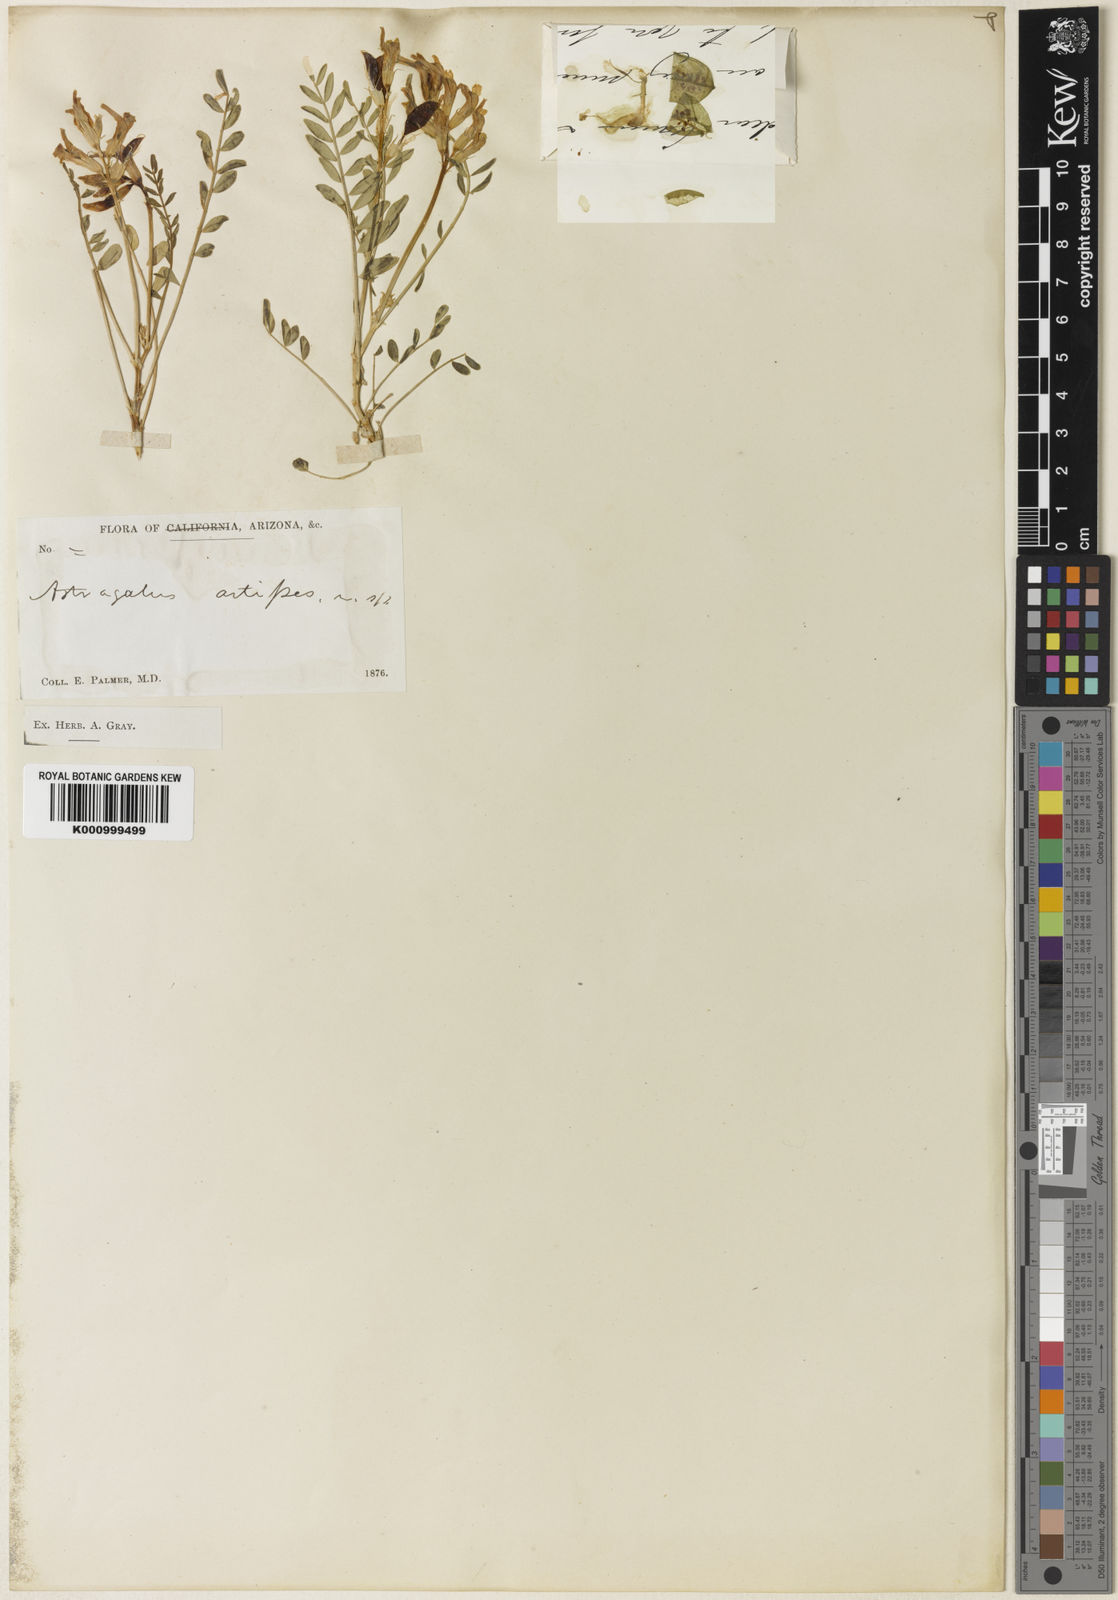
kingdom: Plantae
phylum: Tracheophyta
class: Magnoliopsida
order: Fabales
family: Fabaceae
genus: Astragalus
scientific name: Astragalus oophorus
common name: Egg milkvetch
